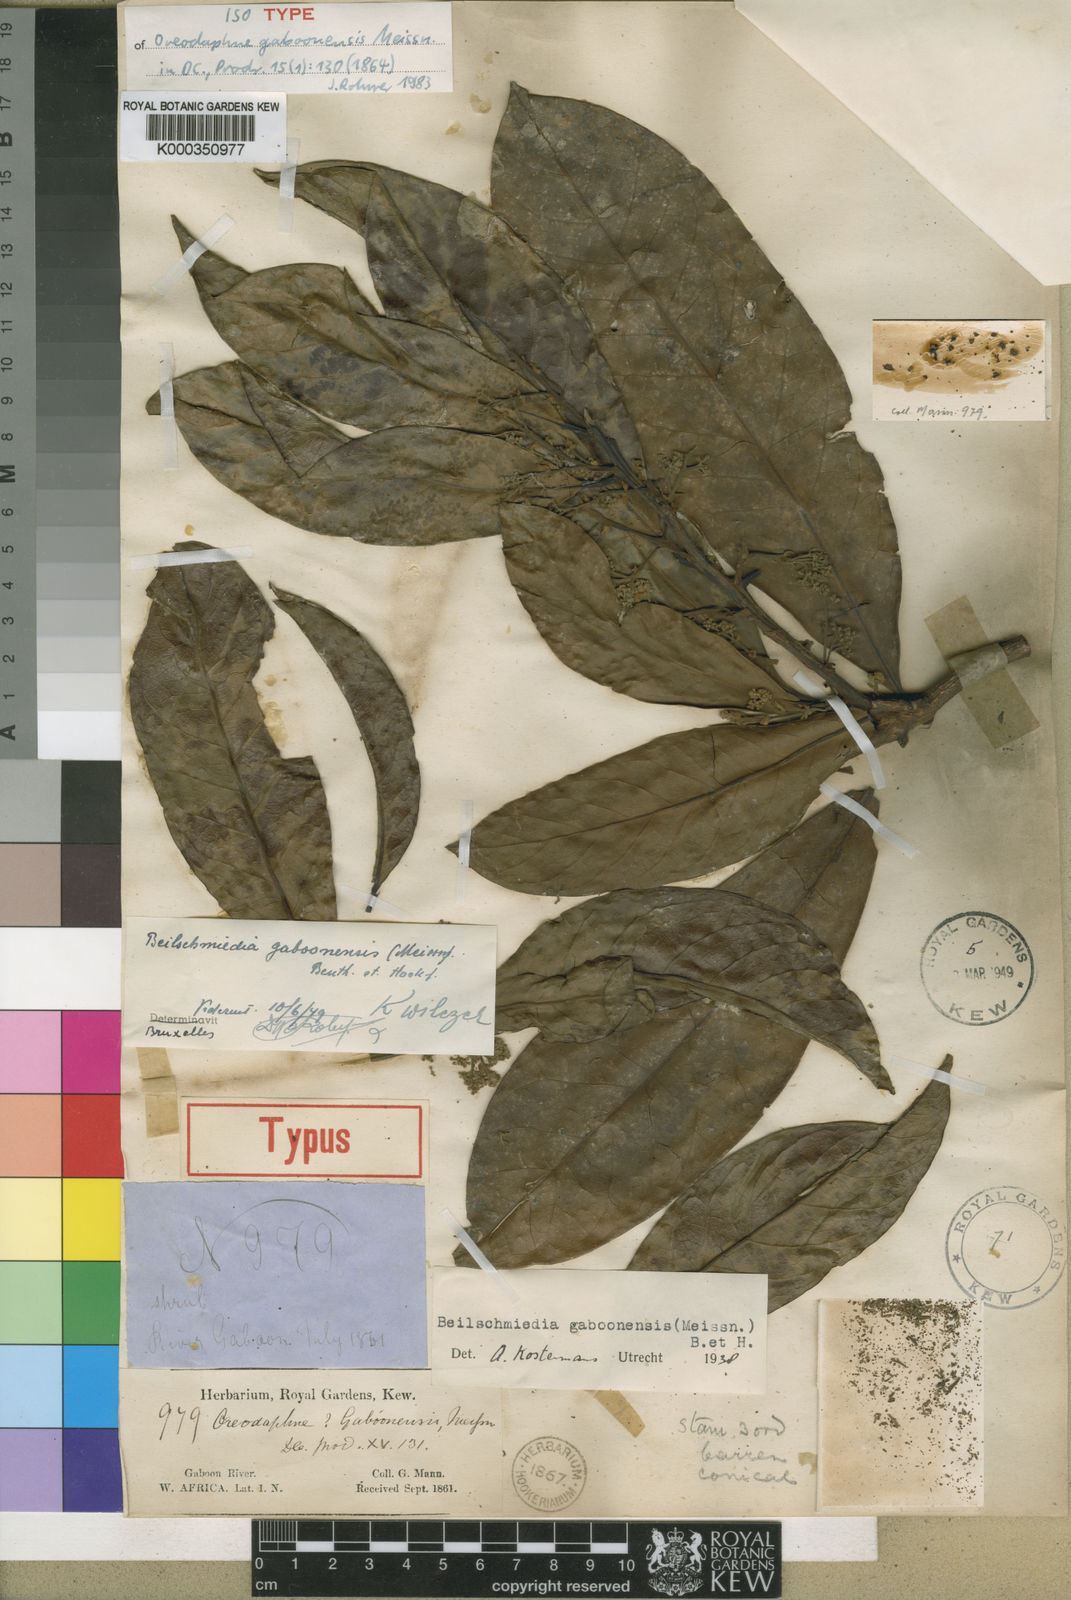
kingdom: Plantae
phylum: Tracheophyta
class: Magnoliopsida
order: Laurales
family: Lauraceae
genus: Beilschmiedia
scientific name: Beilschmiedia
